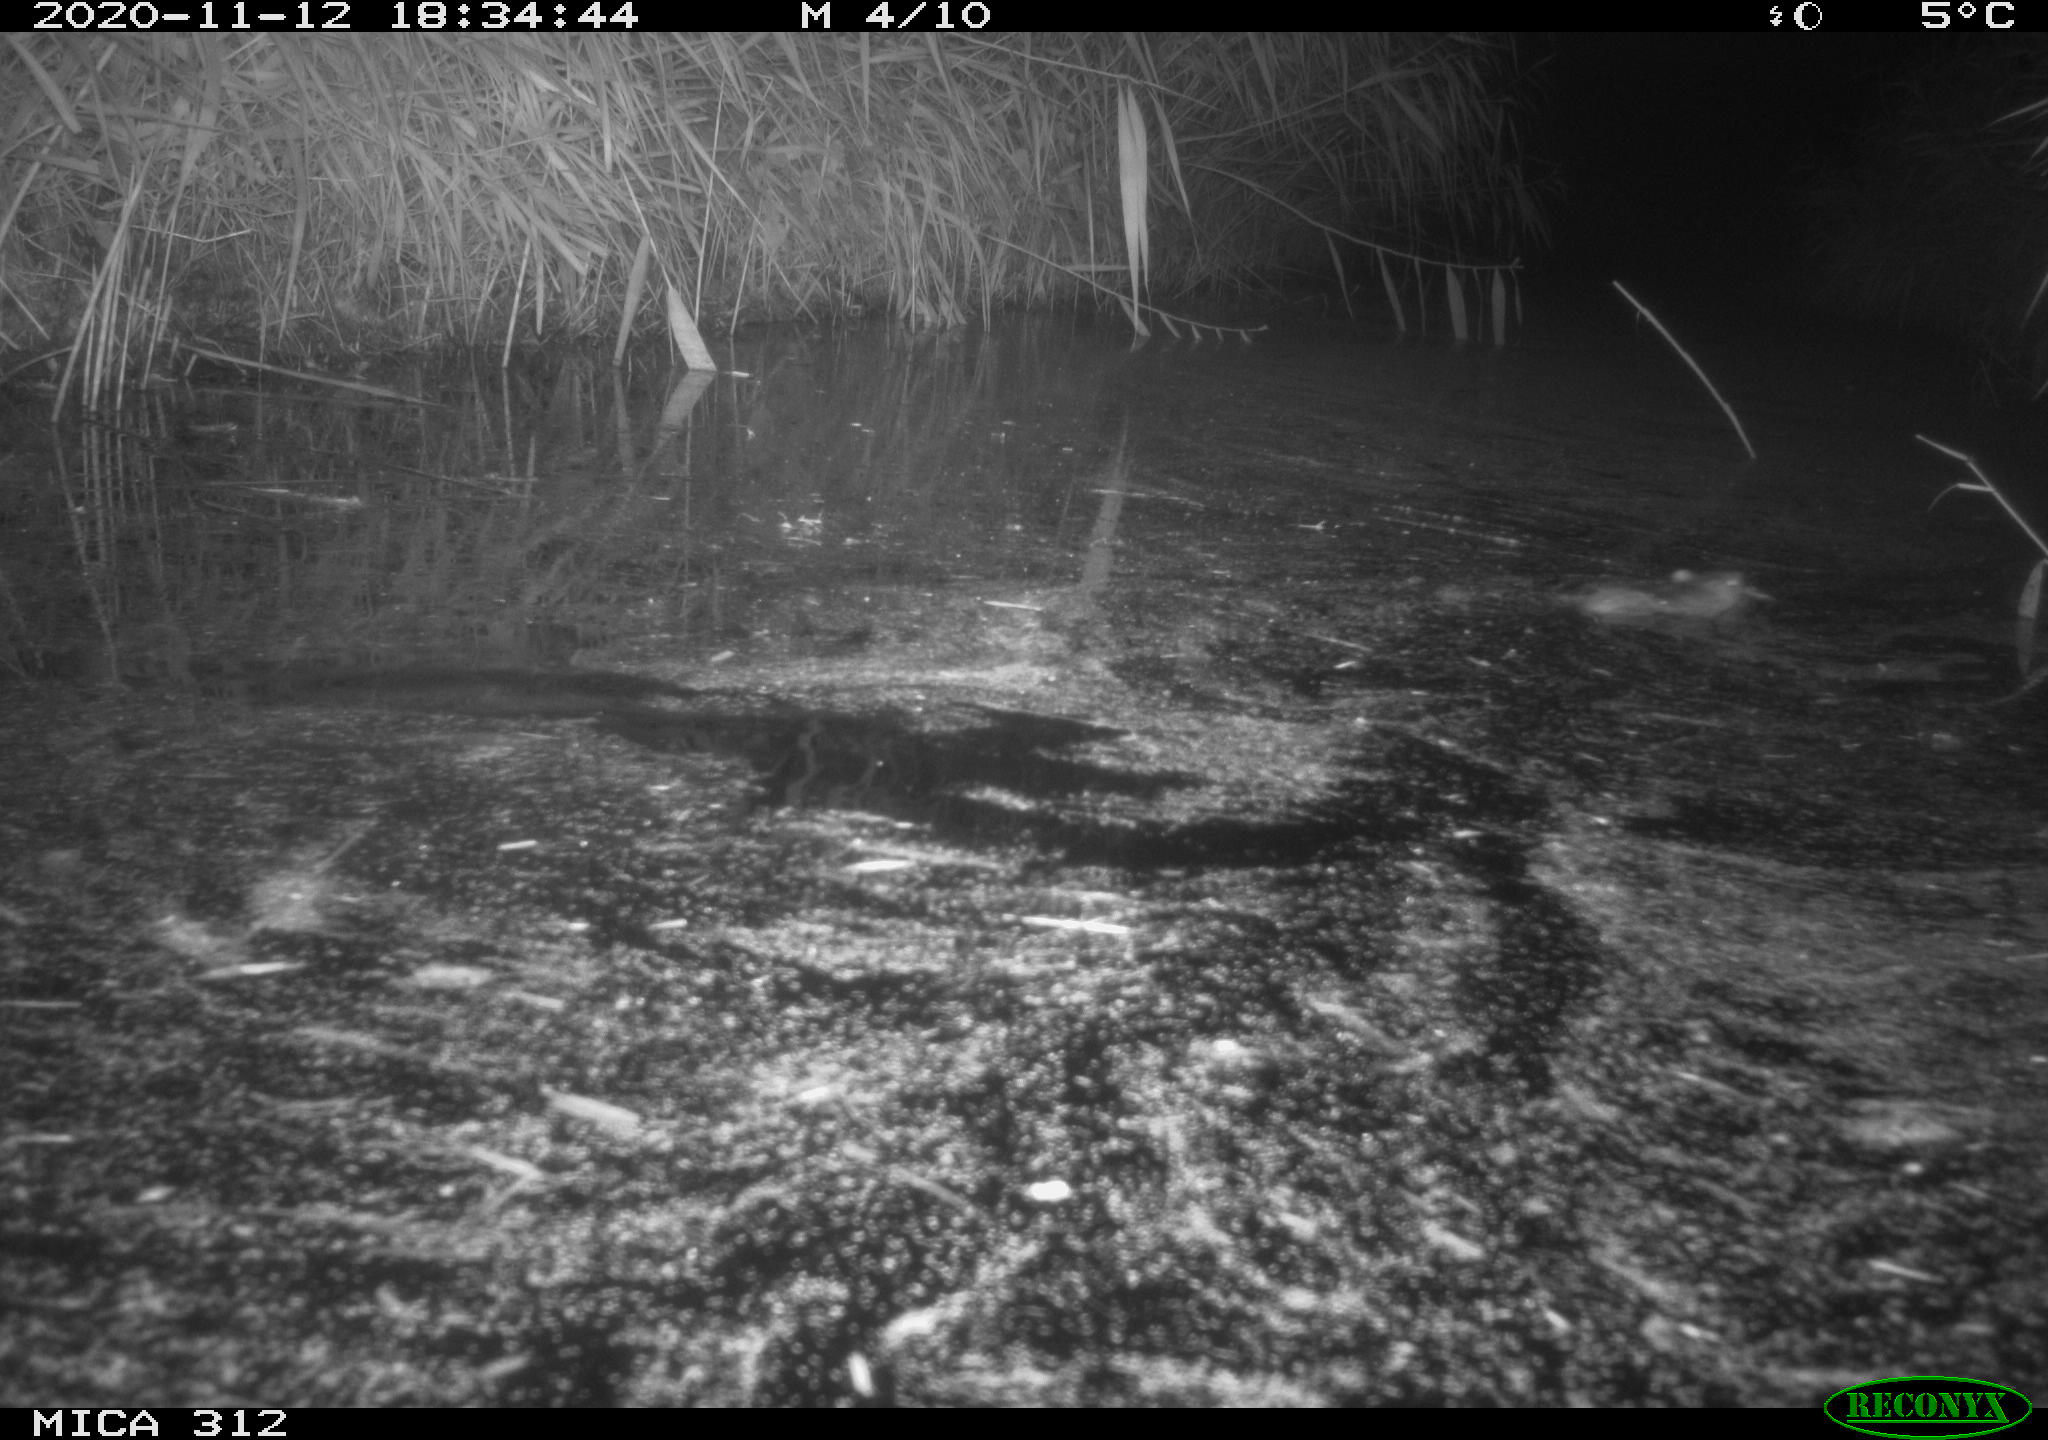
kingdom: Animalia
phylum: Chordata
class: Mammalia
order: Rodentia
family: Muridae
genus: Rattus
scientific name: Rattus norvegicus
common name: Brown rat
